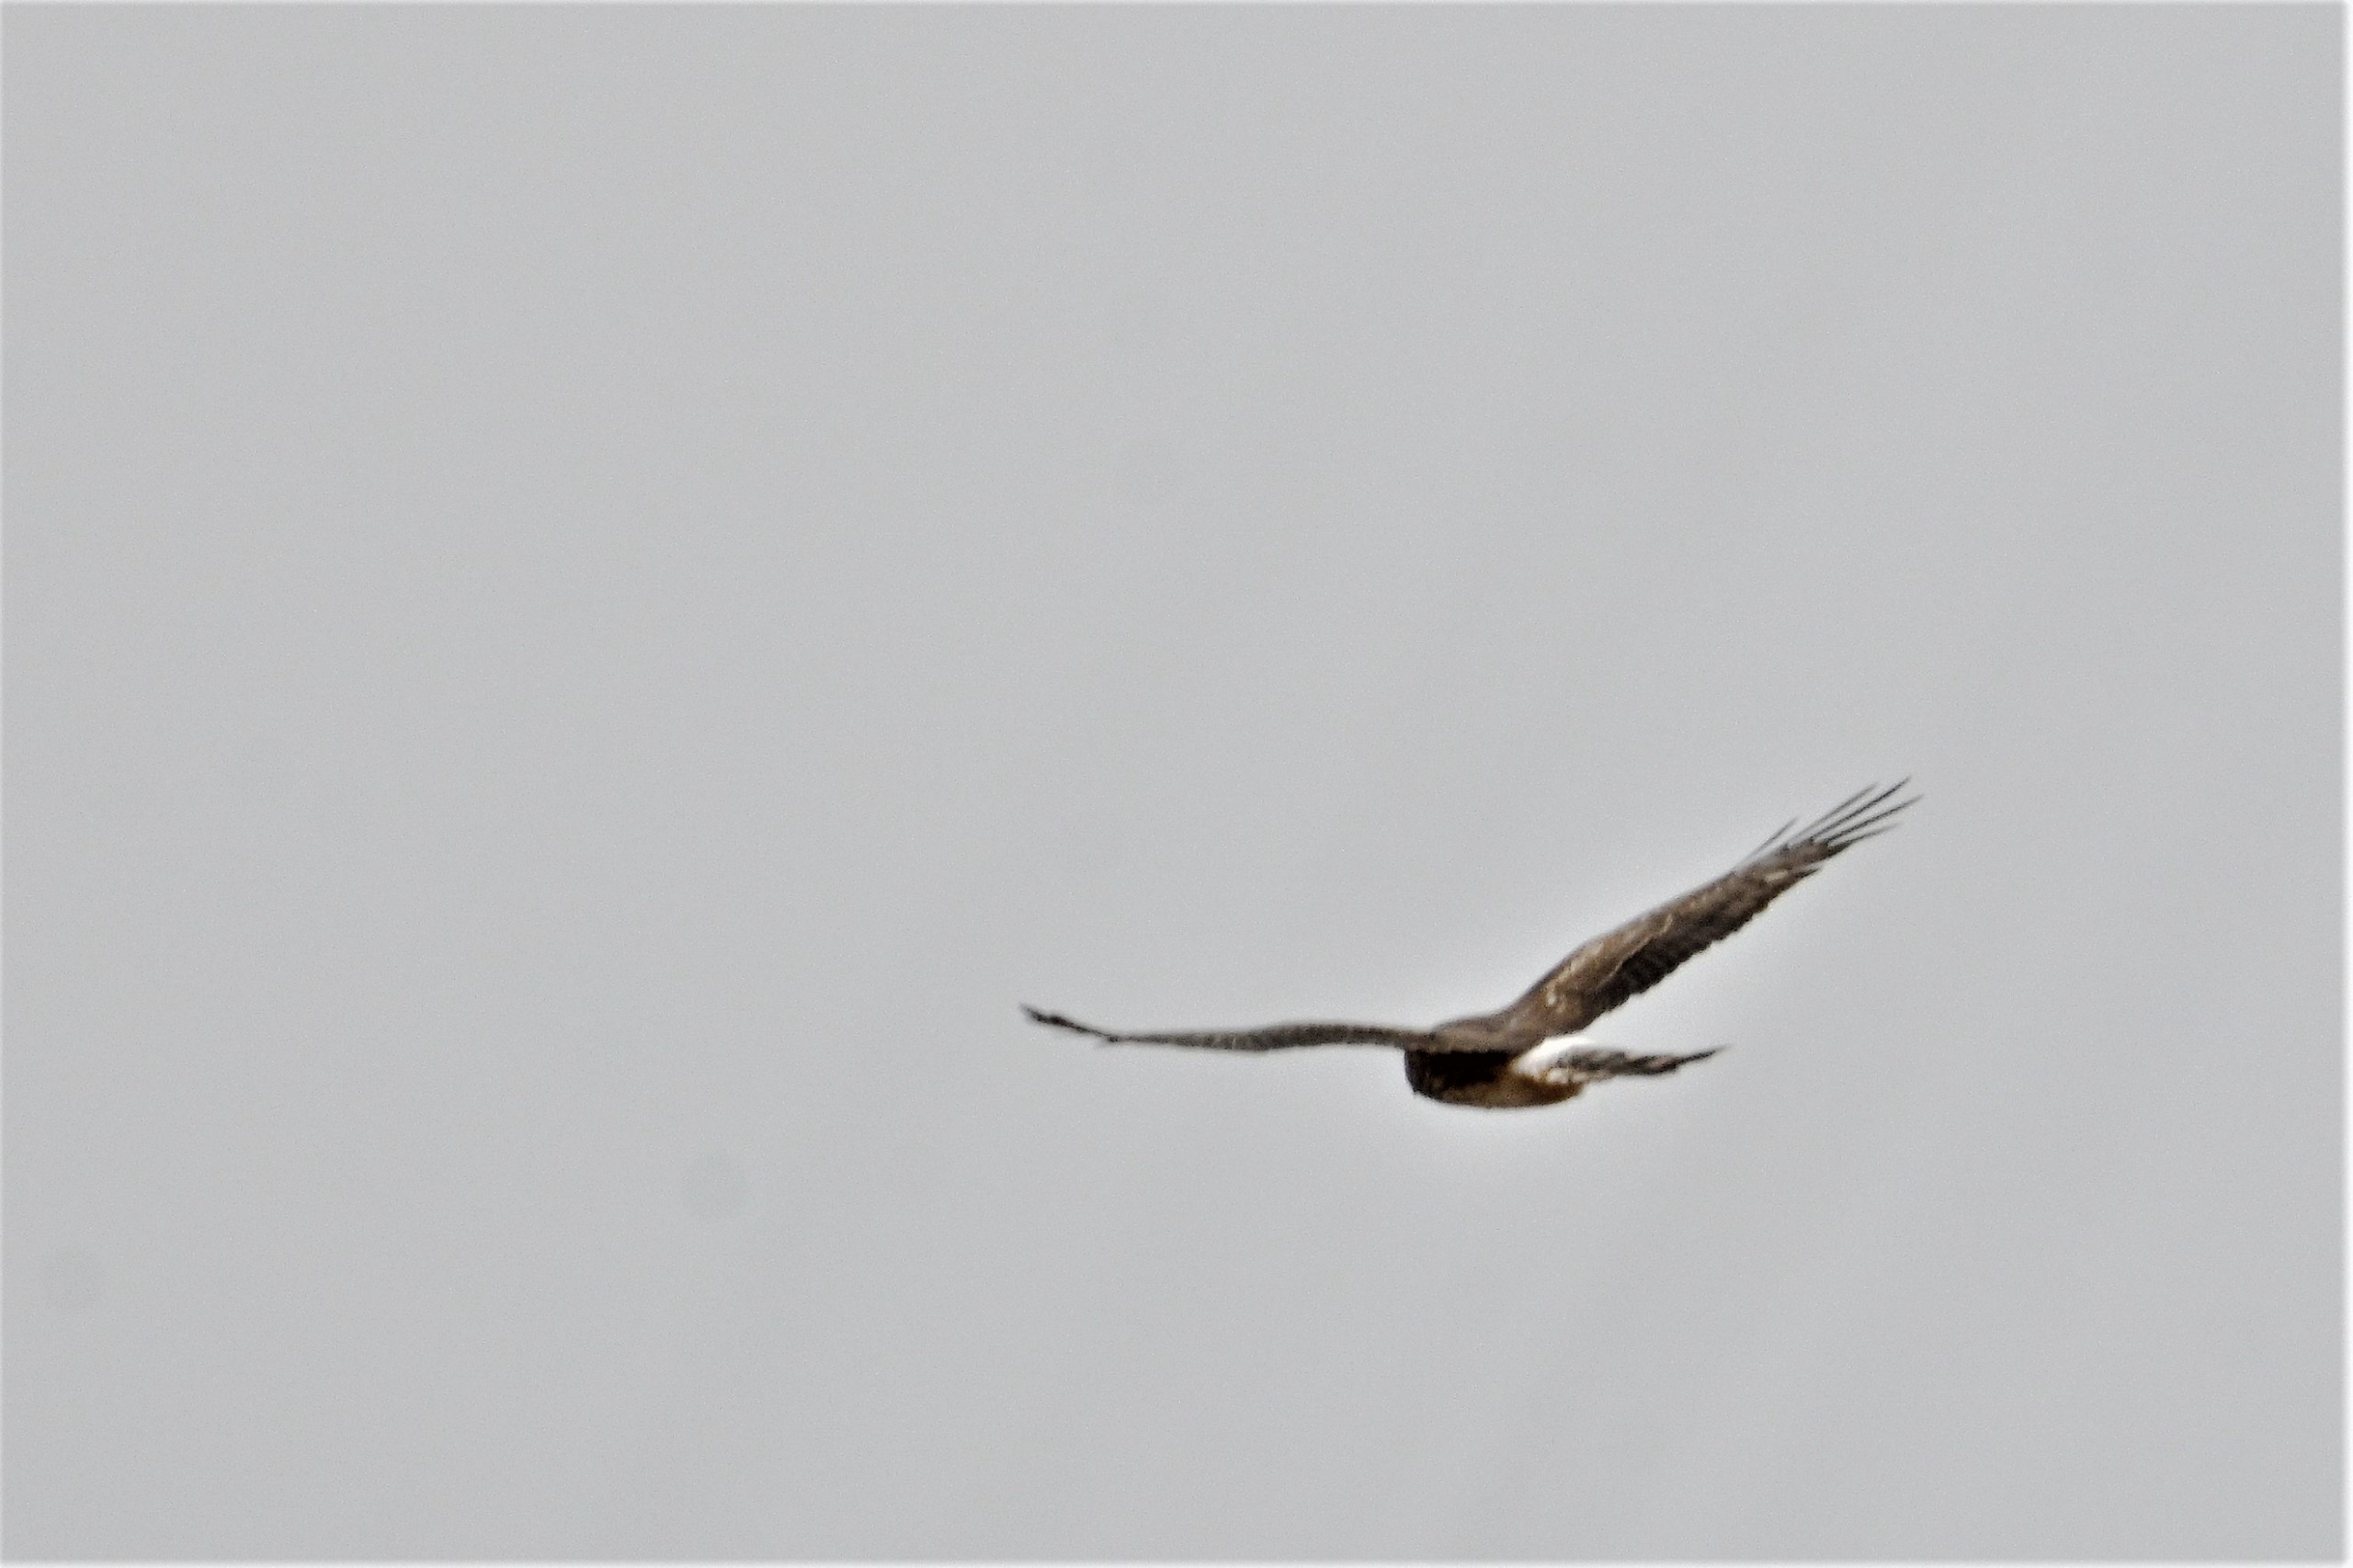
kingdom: Animalia
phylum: Chordata
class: Aves
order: Accipitriformes
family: Accipitridae
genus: Circus
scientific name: Circus cyaneus
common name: Blå kærhøg
